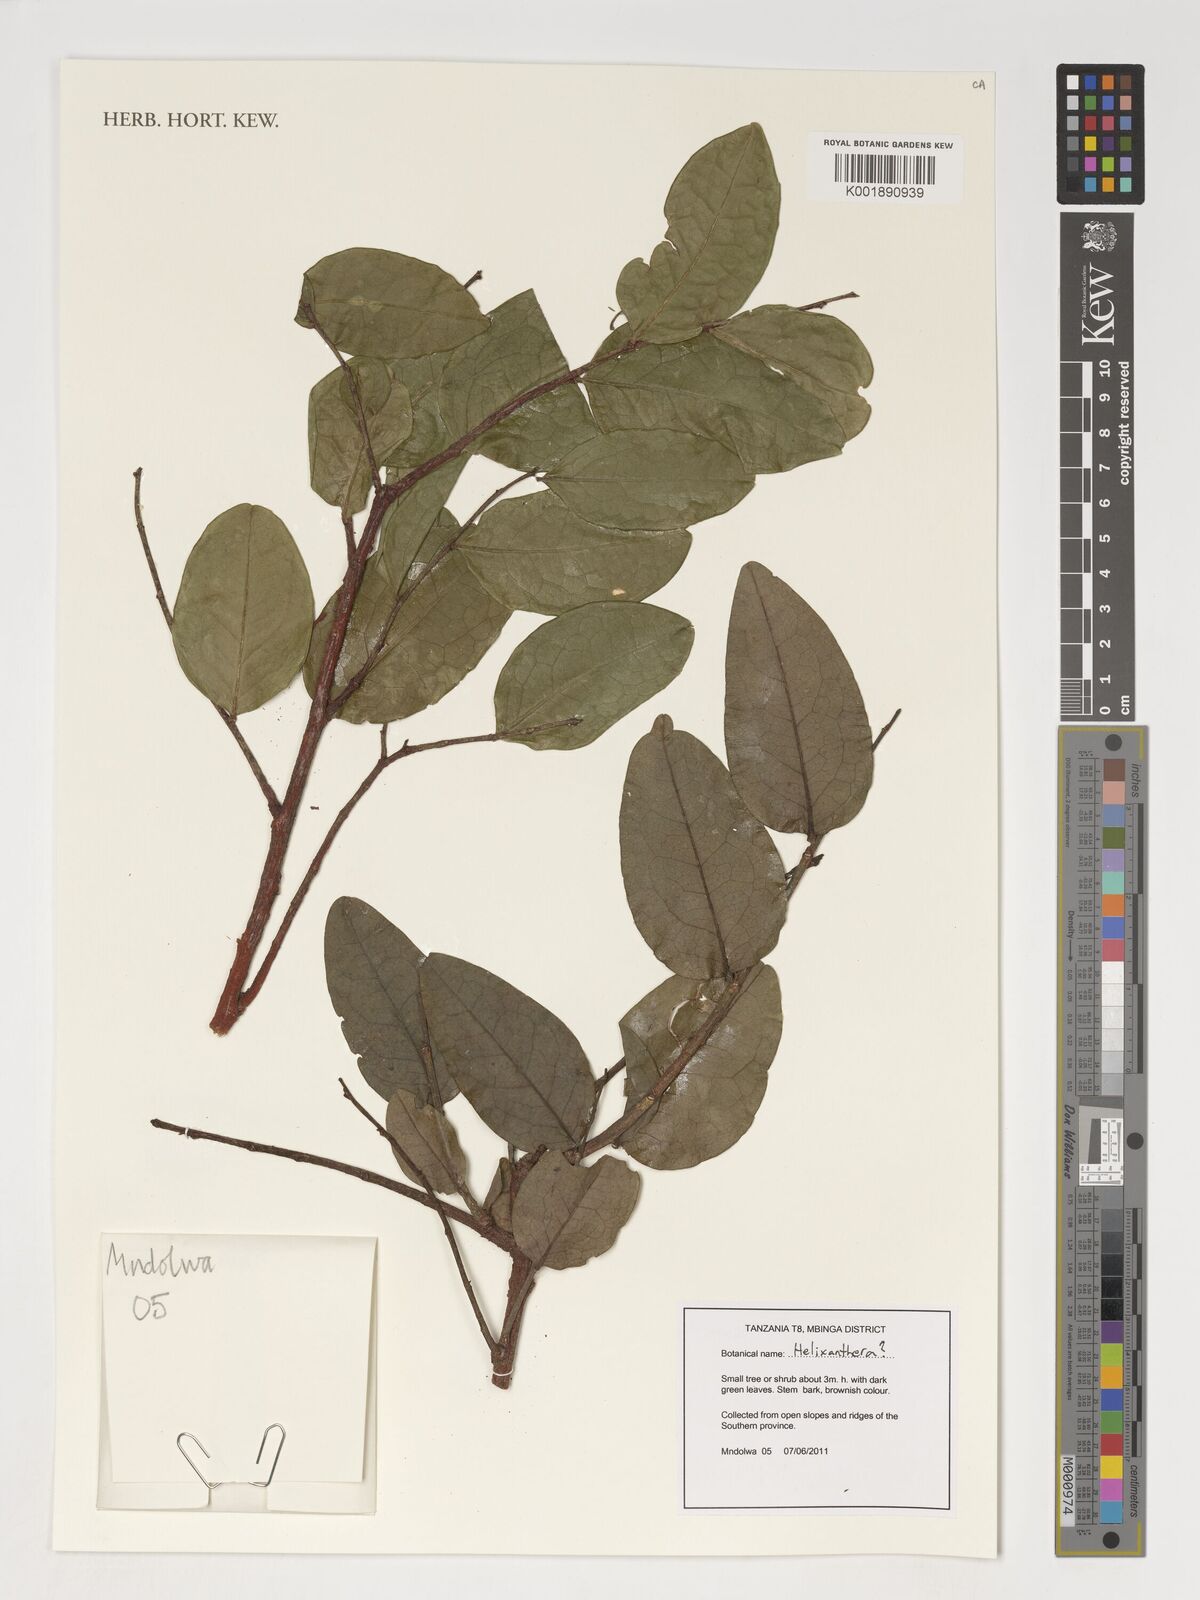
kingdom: Plantae
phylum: Tracheophyta
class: Magnoliopsida
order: Santalales
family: Loranthaceae
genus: Helixanthera
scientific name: Helixanthera
